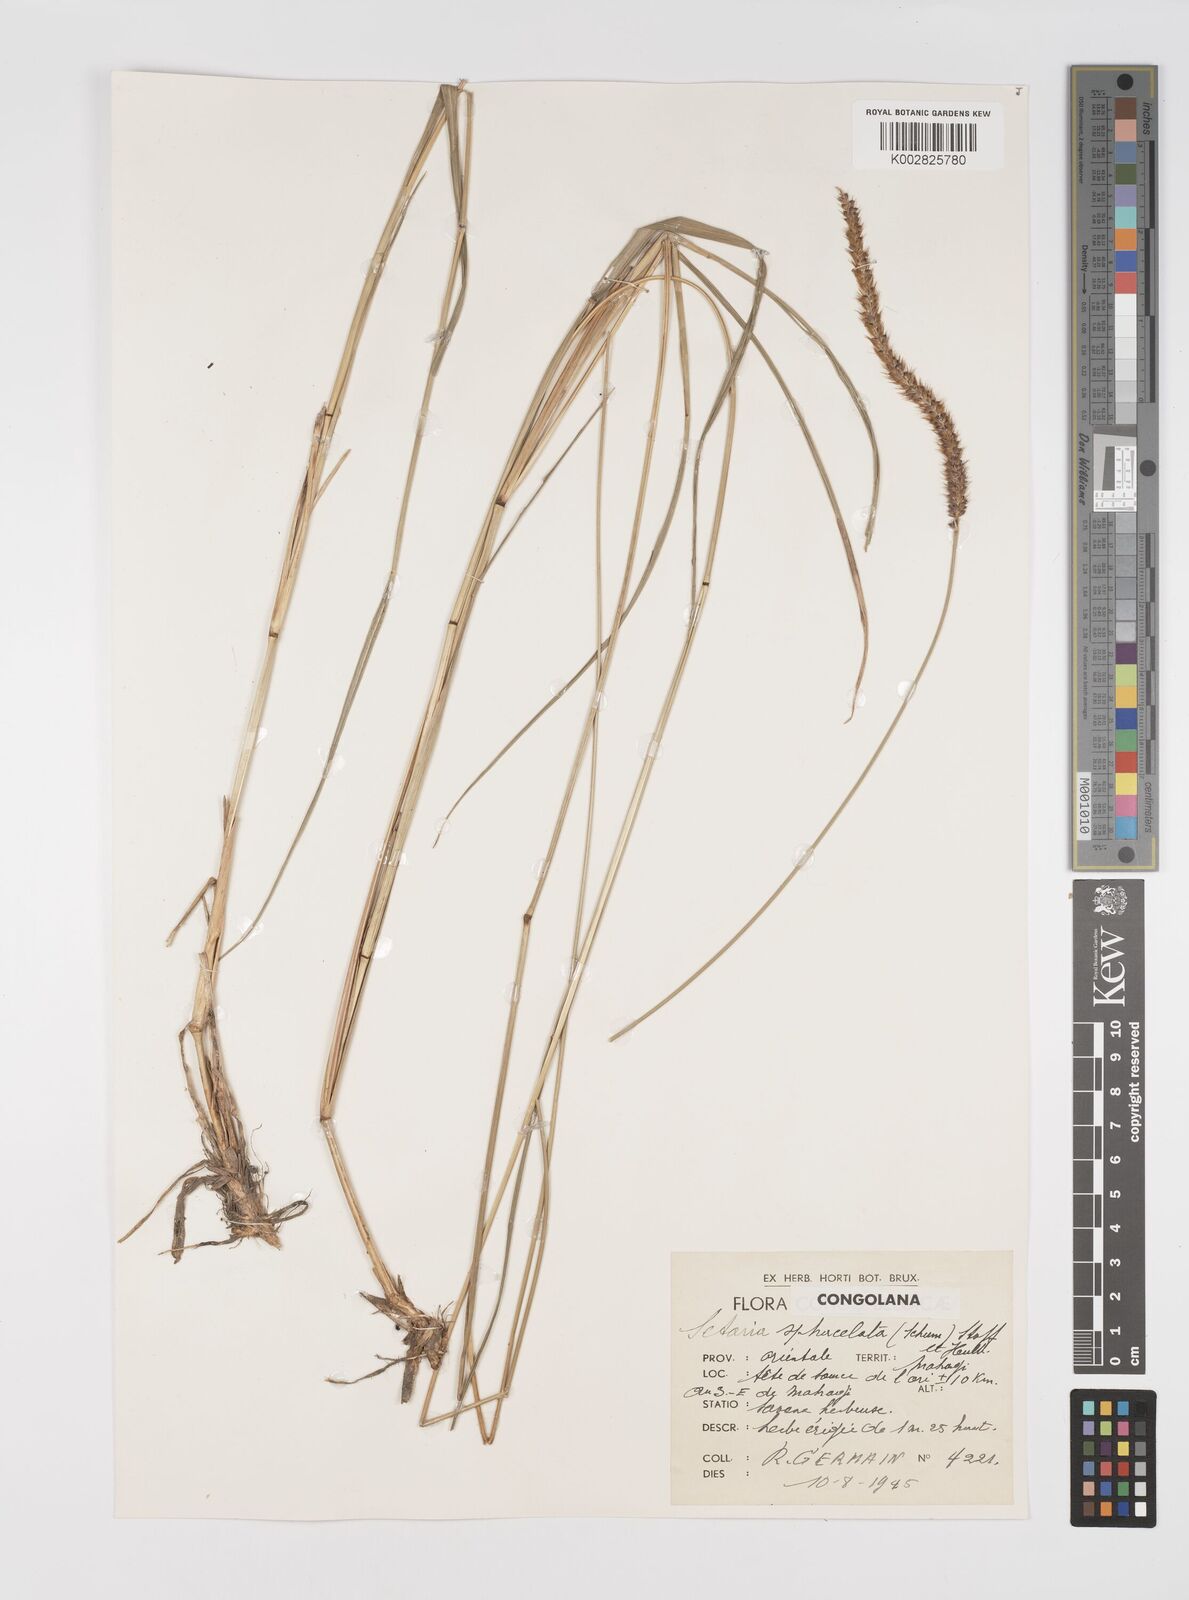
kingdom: Plantae
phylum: Tracheophyta
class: Liliopsida
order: Poales
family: Poaceae
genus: Setaria
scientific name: Setaria sphacelata
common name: African bristlegrass
